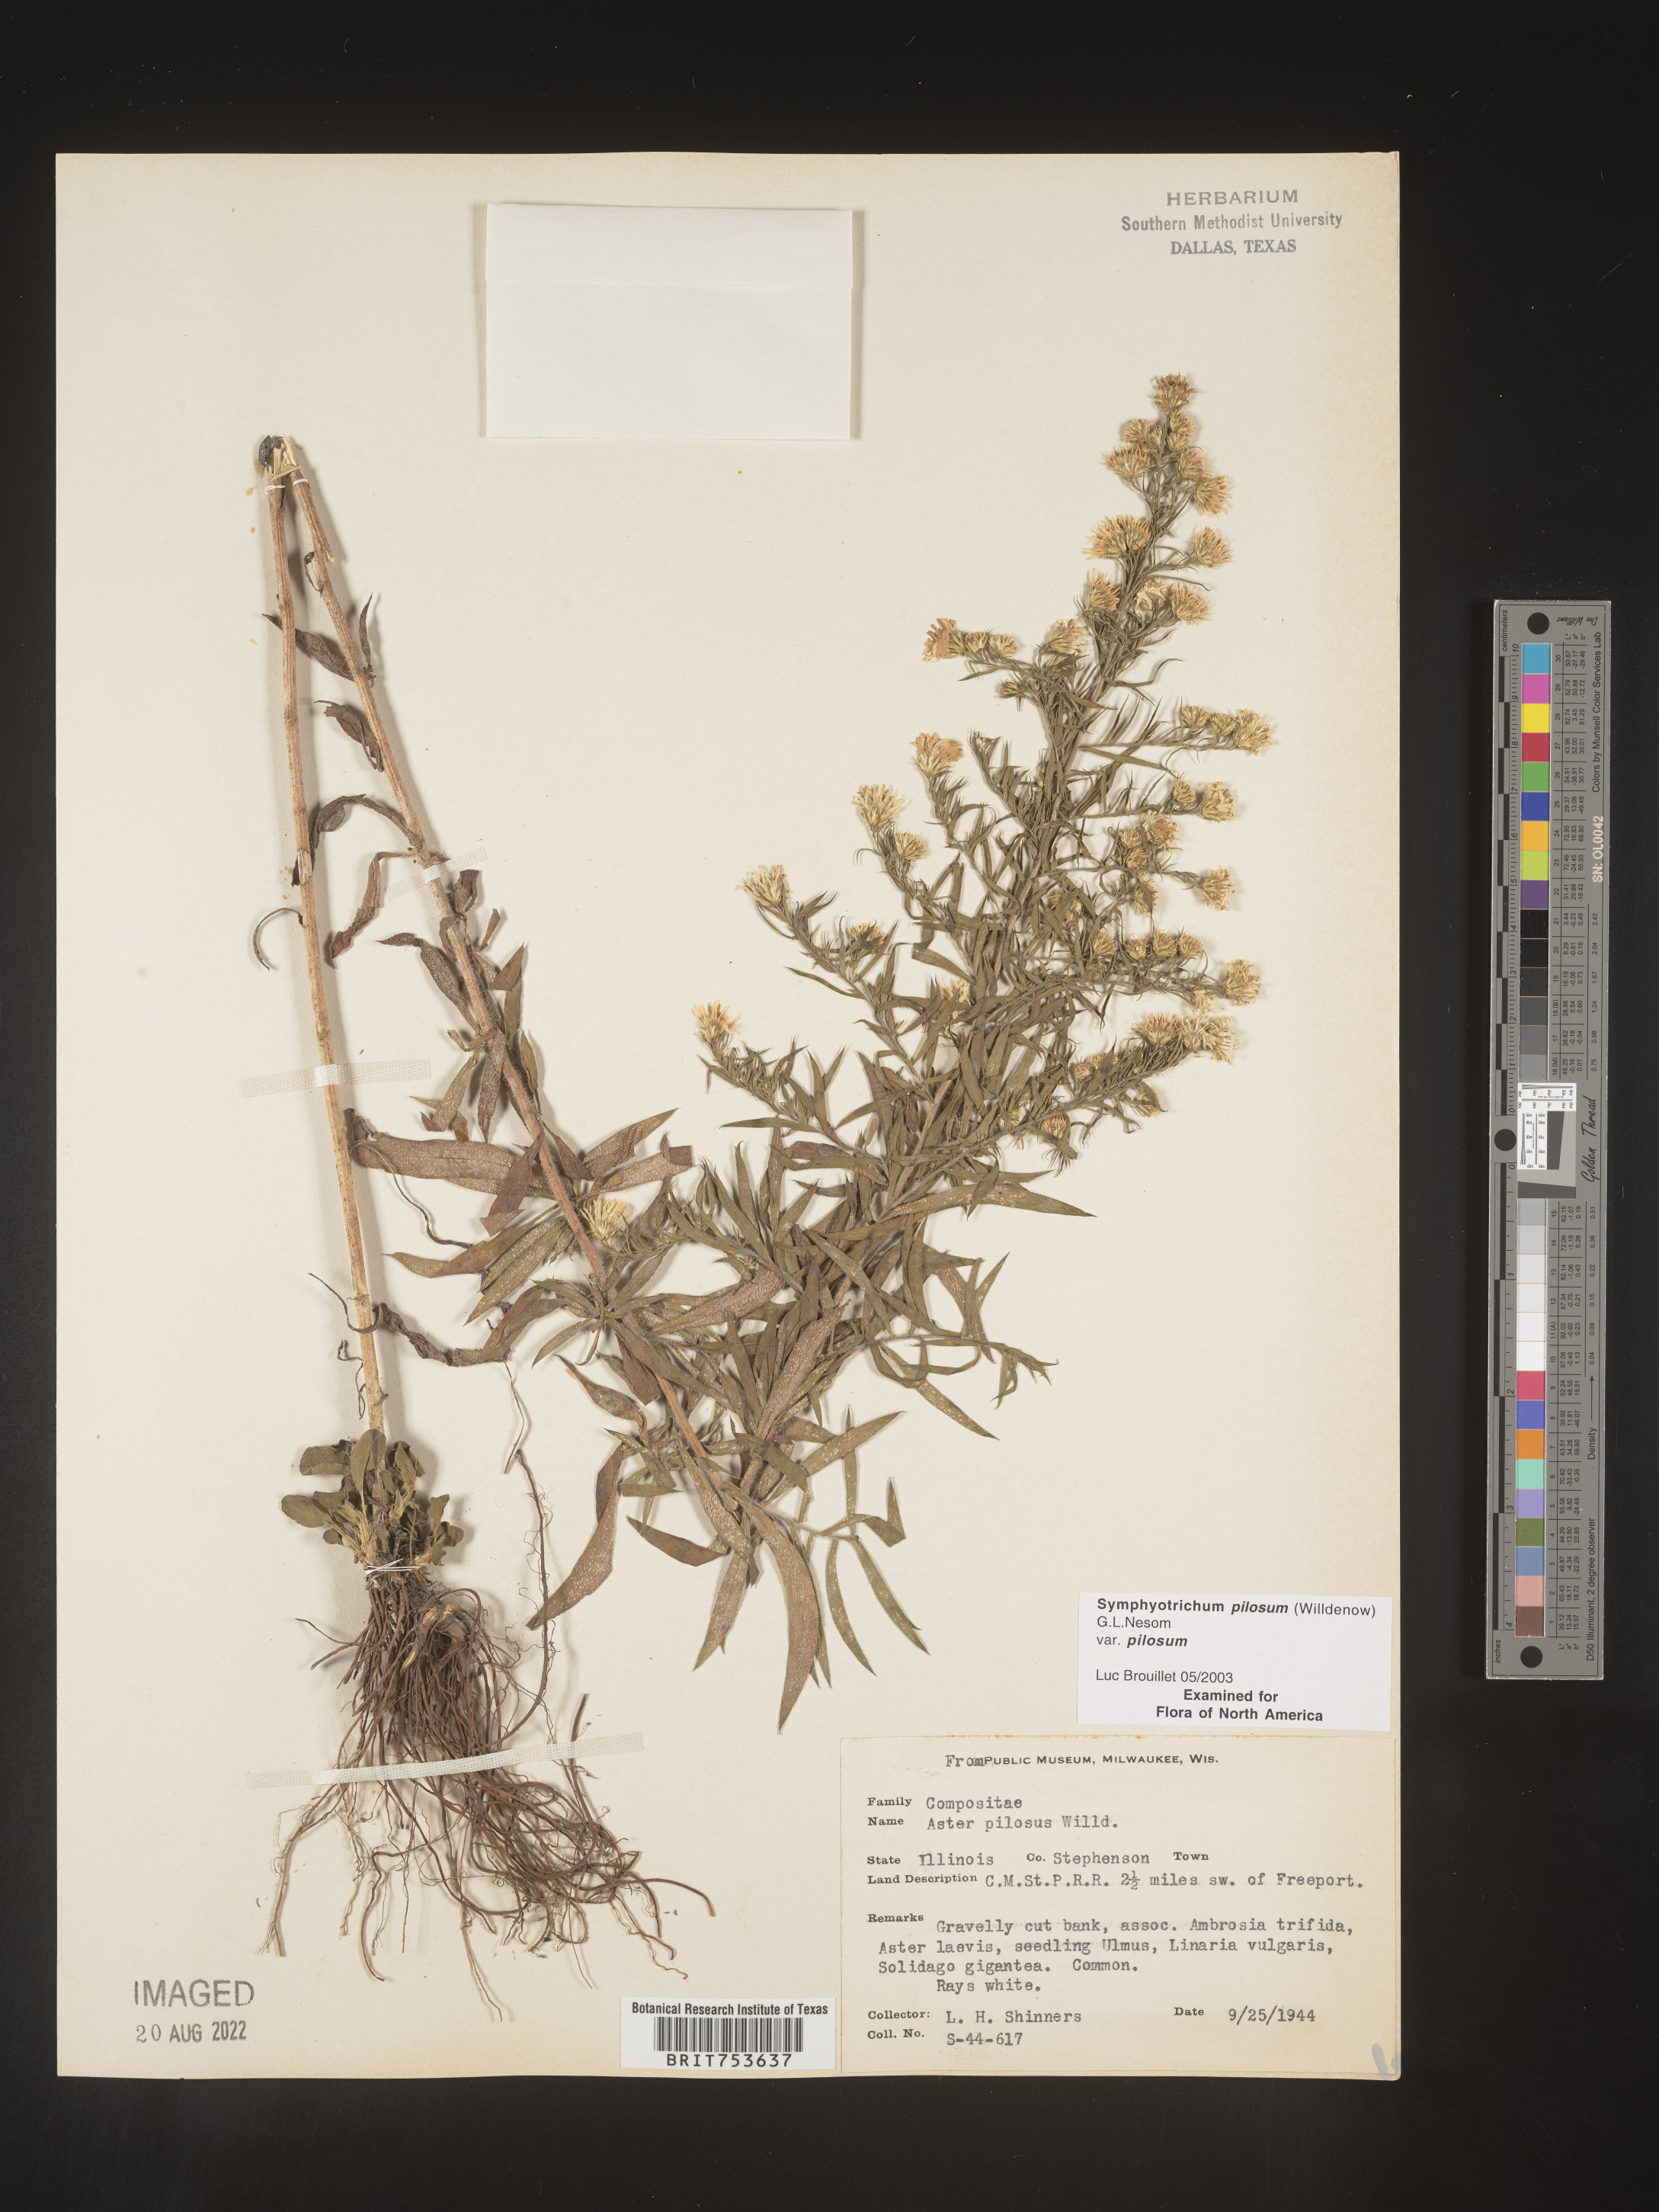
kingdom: Plantae
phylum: Tracheophyta
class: Magnoliopsida
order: Asterales
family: Asteraceae
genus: Symphyotrichum
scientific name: Symphyotrichum pilosum
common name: Awl aster
